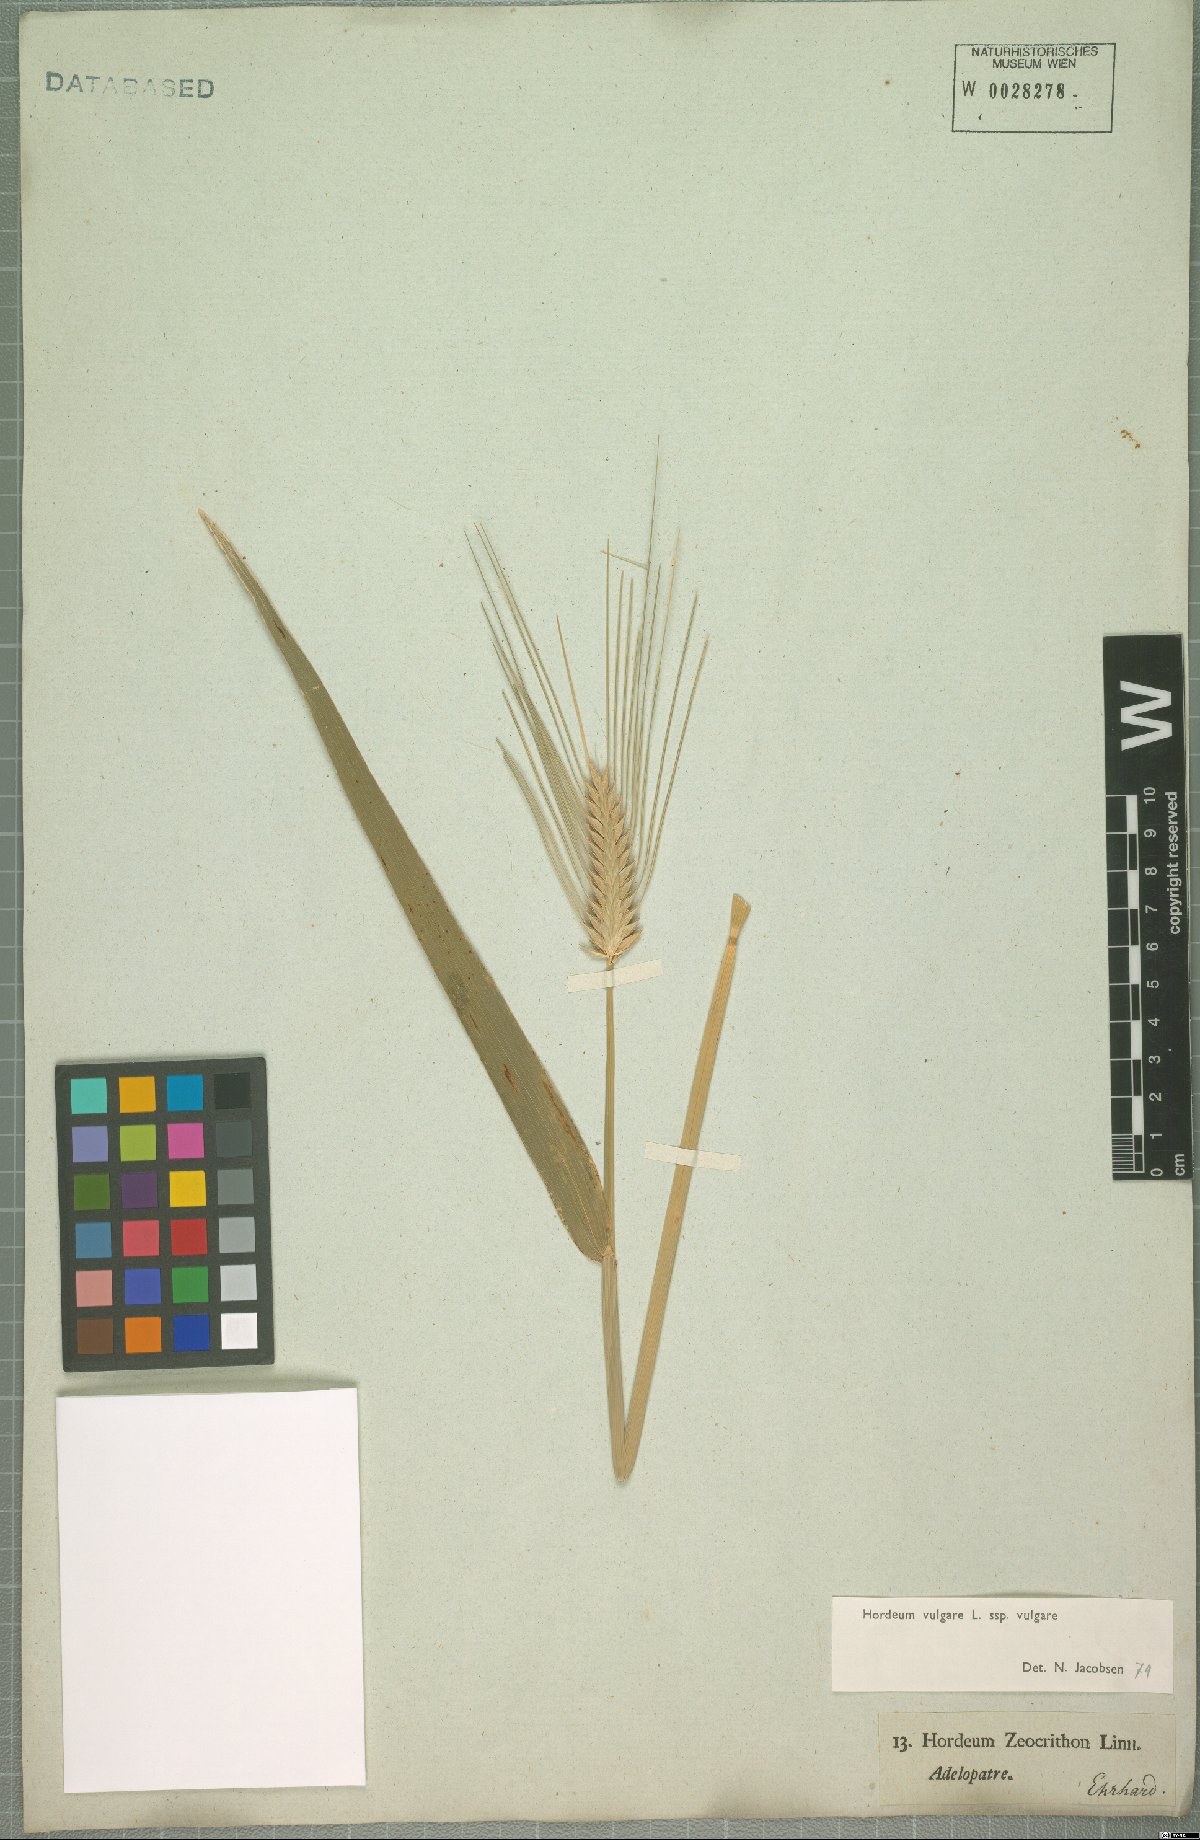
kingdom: Plantae
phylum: Tracheophyta
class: Liliopsida
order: Poales
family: Poaceae
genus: Hordeum
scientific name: Hordeum vulgare
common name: Common barley
